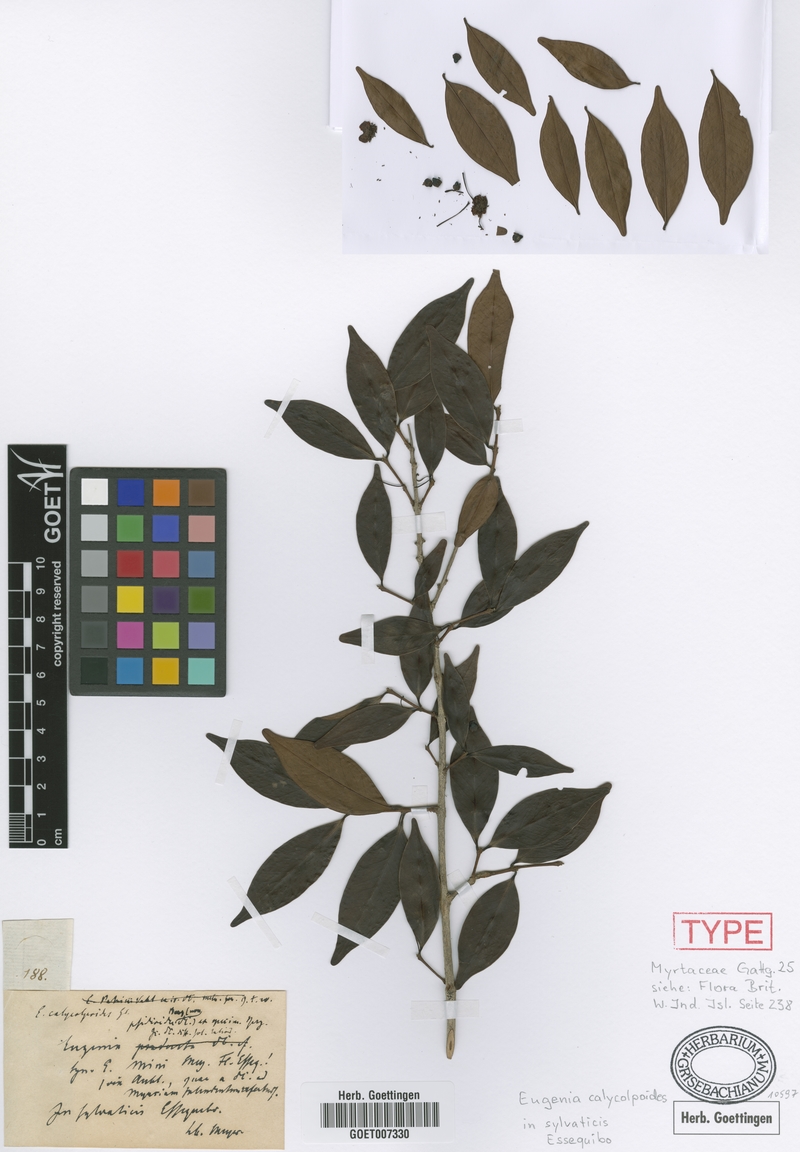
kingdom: Plantae
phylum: Tracheophyta
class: Magnoliopsida
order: Myrtales
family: Myrtaceae
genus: Eugenia
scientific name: Eugenia punicifolia
